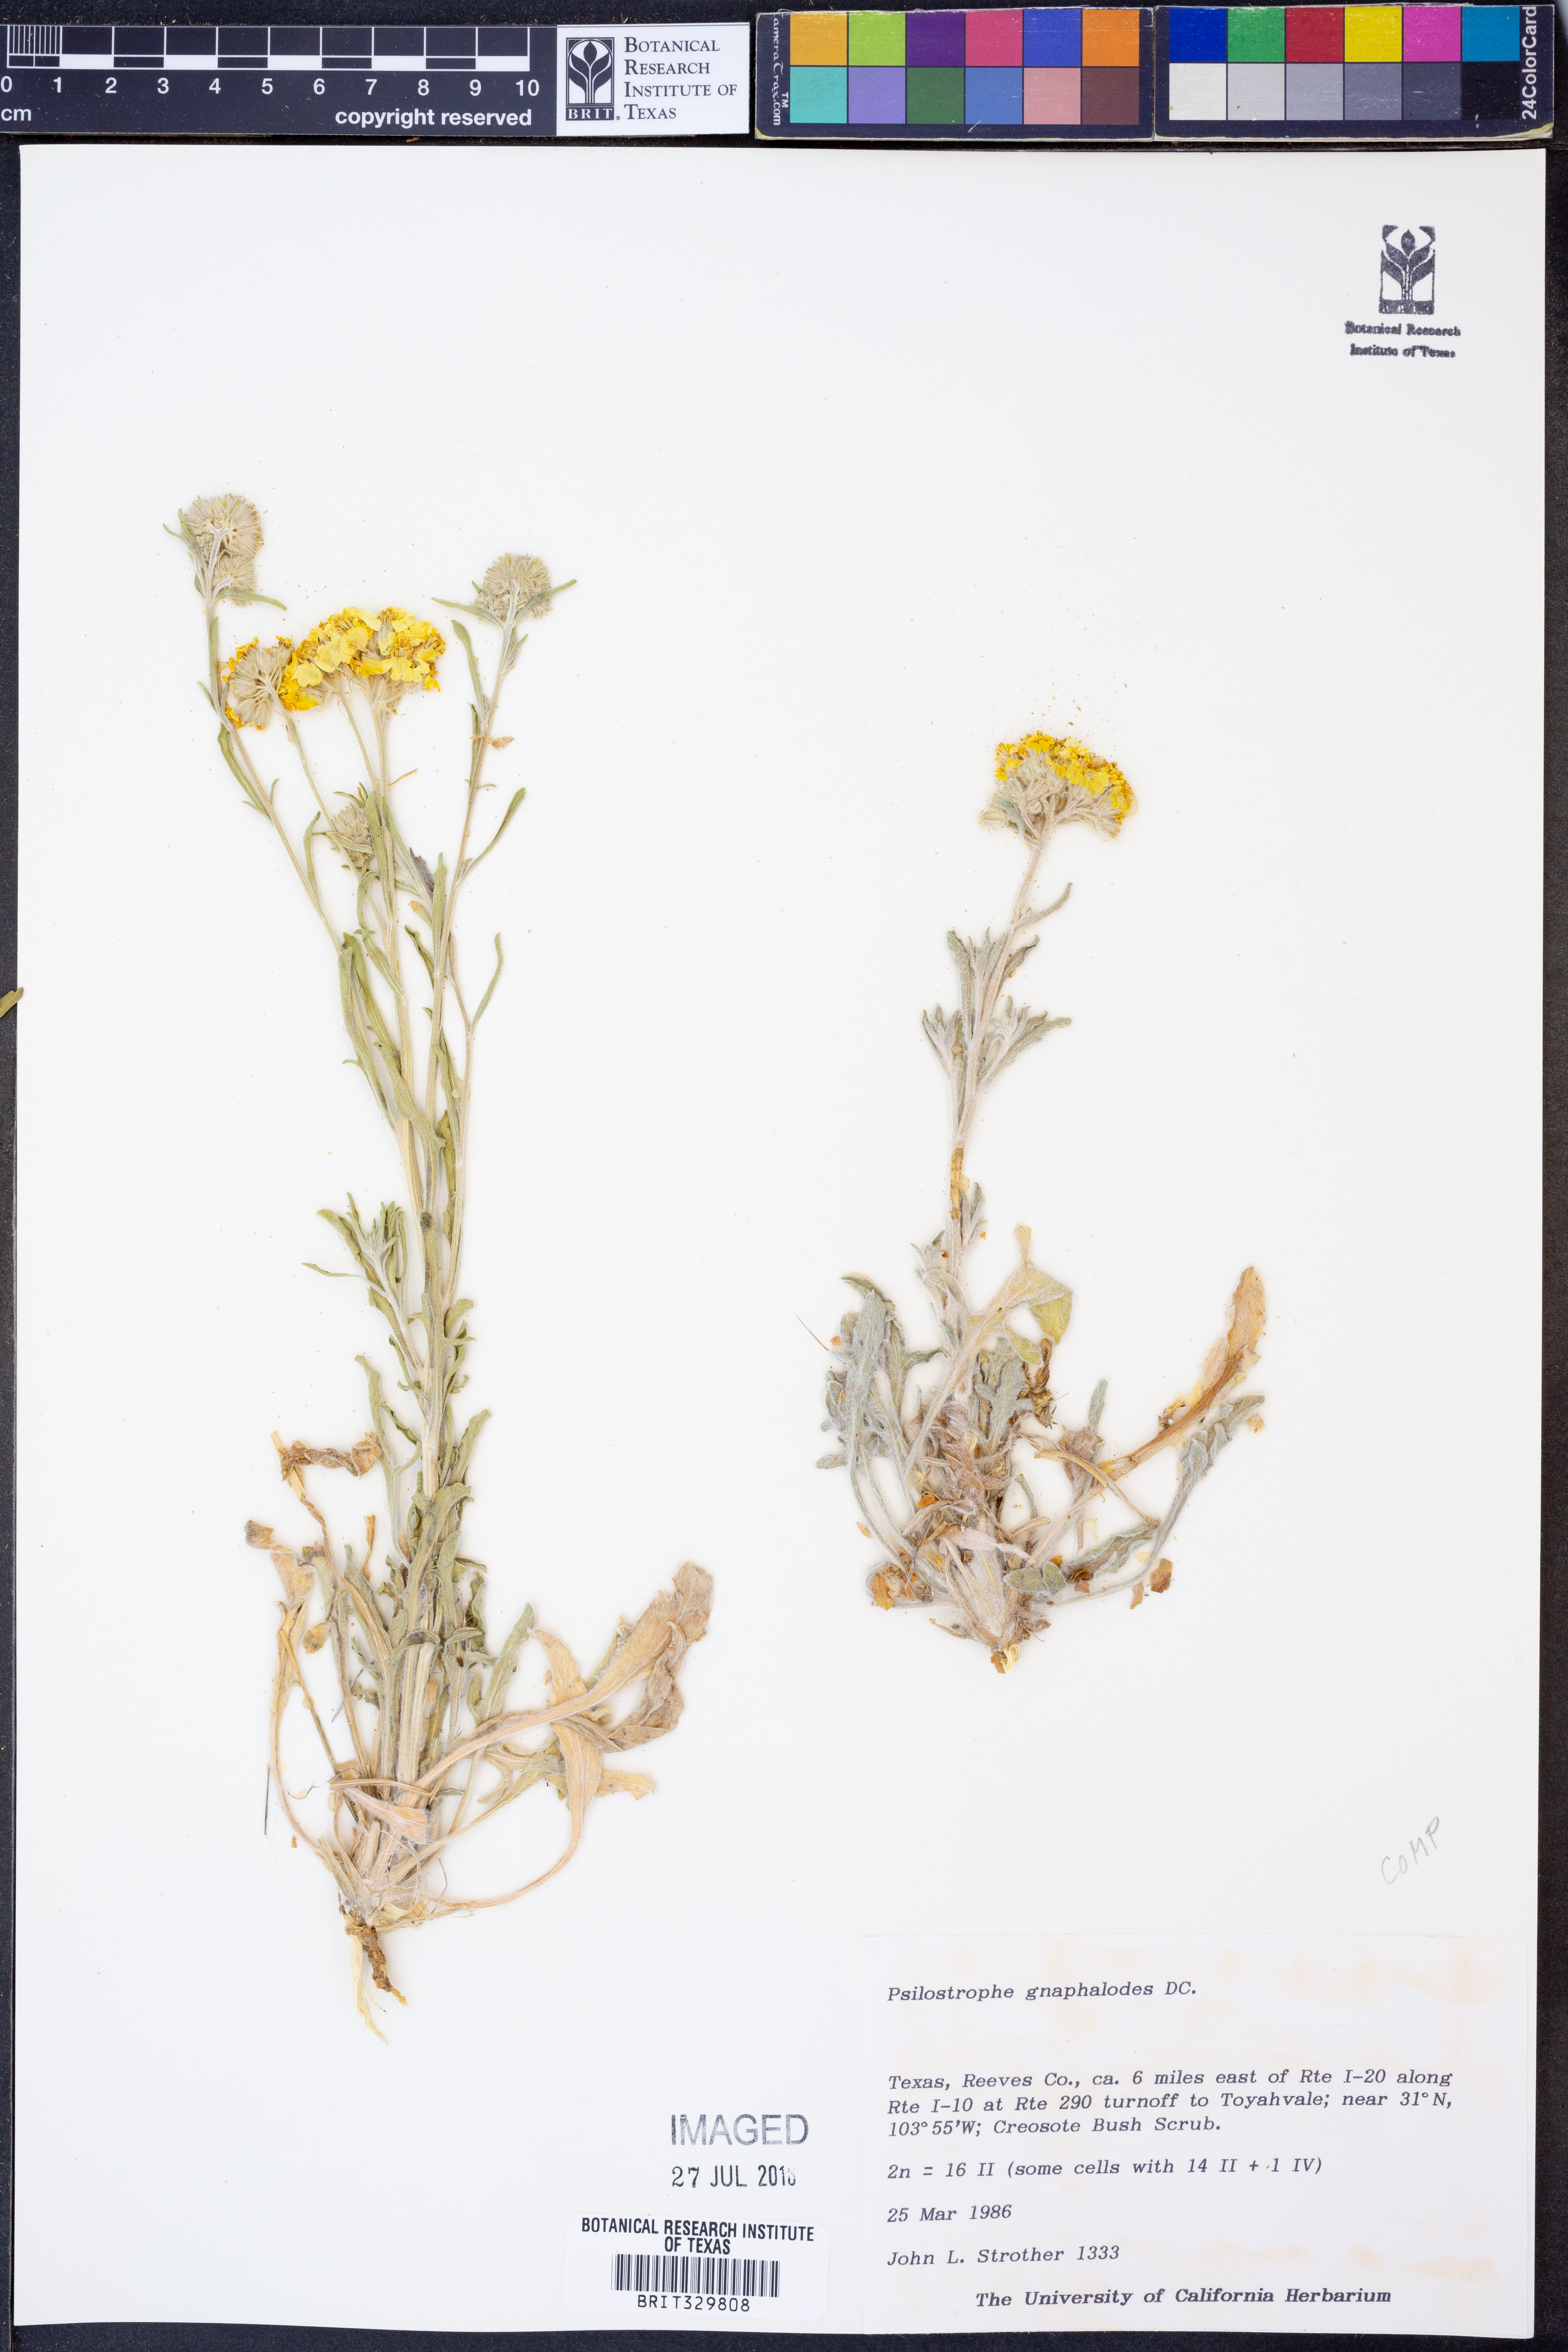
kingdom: Plantae
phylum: Tracheophyta
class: Magnoliopsida
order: Asterales
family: Asteraceae
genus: Psilostrophe
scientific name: Psilostrophe gnaphalioides
